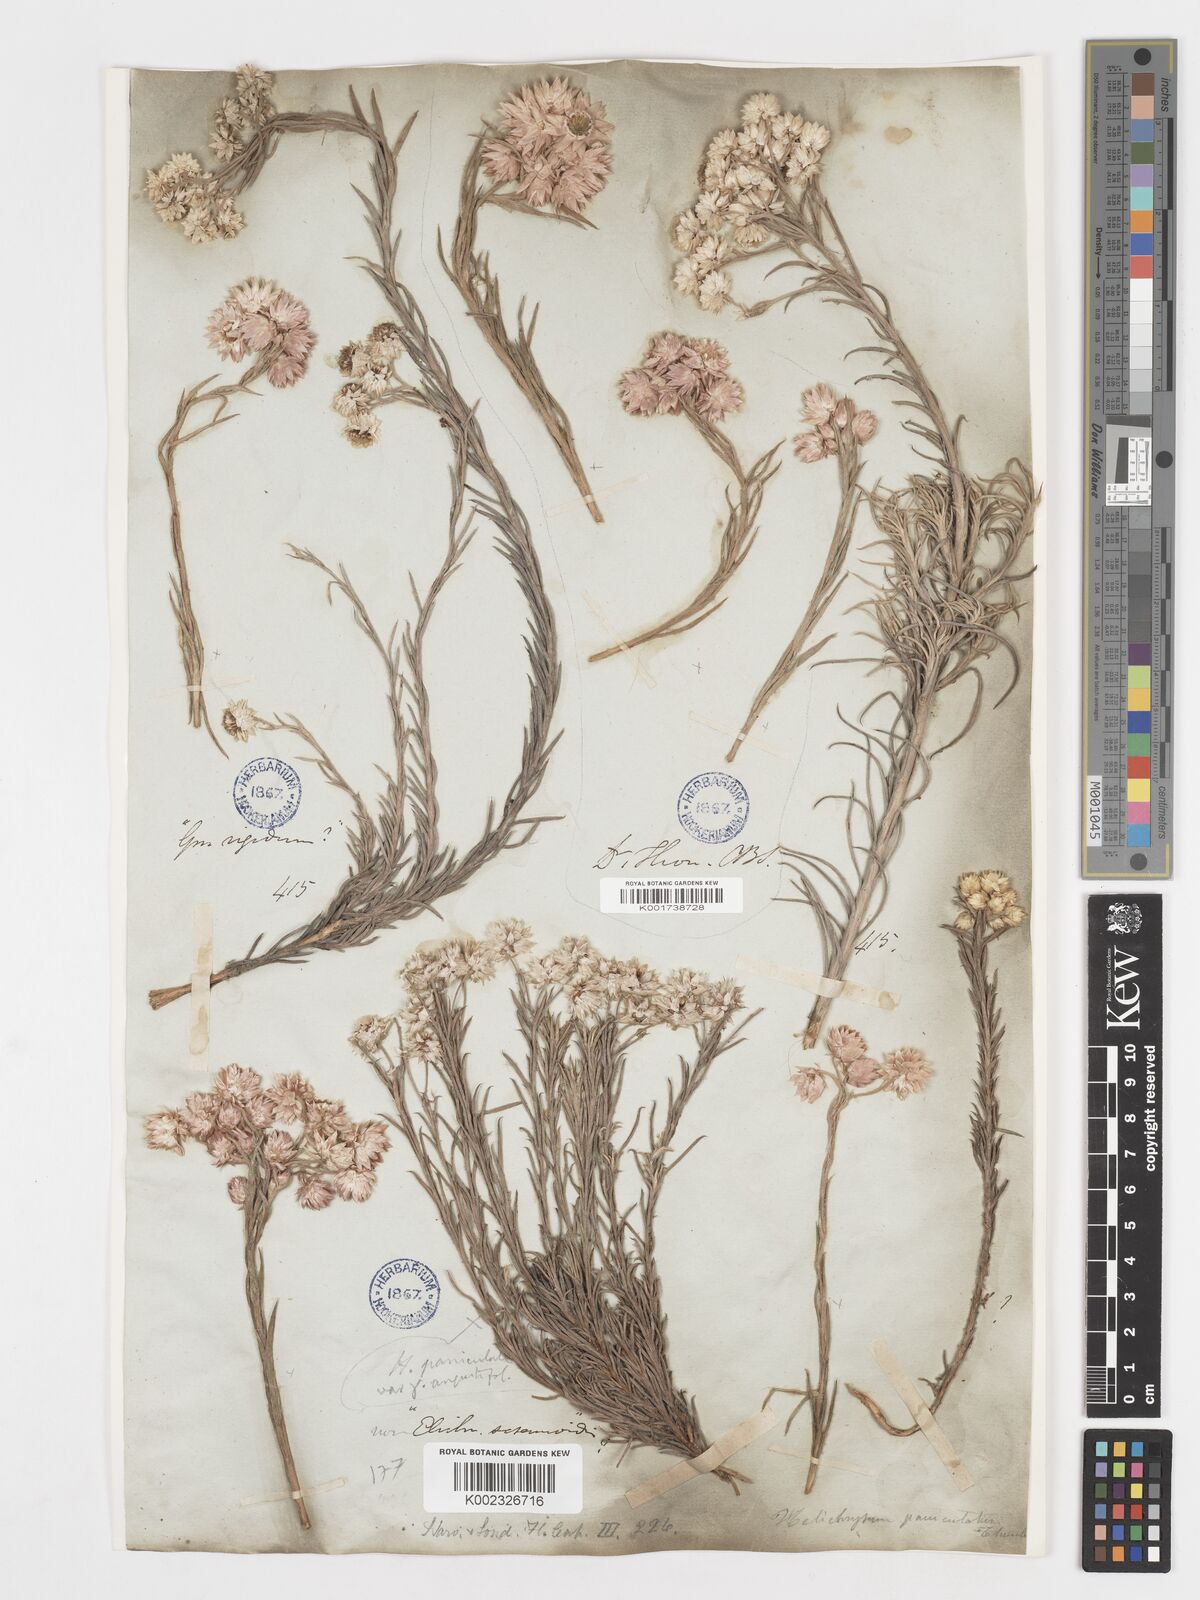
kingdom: Plantae
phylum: Tracheophyta
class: Magnoliopsida
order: Asterales
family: Asteraceae
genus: Achyranthemum
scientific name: Achyranthemum paniculatum
